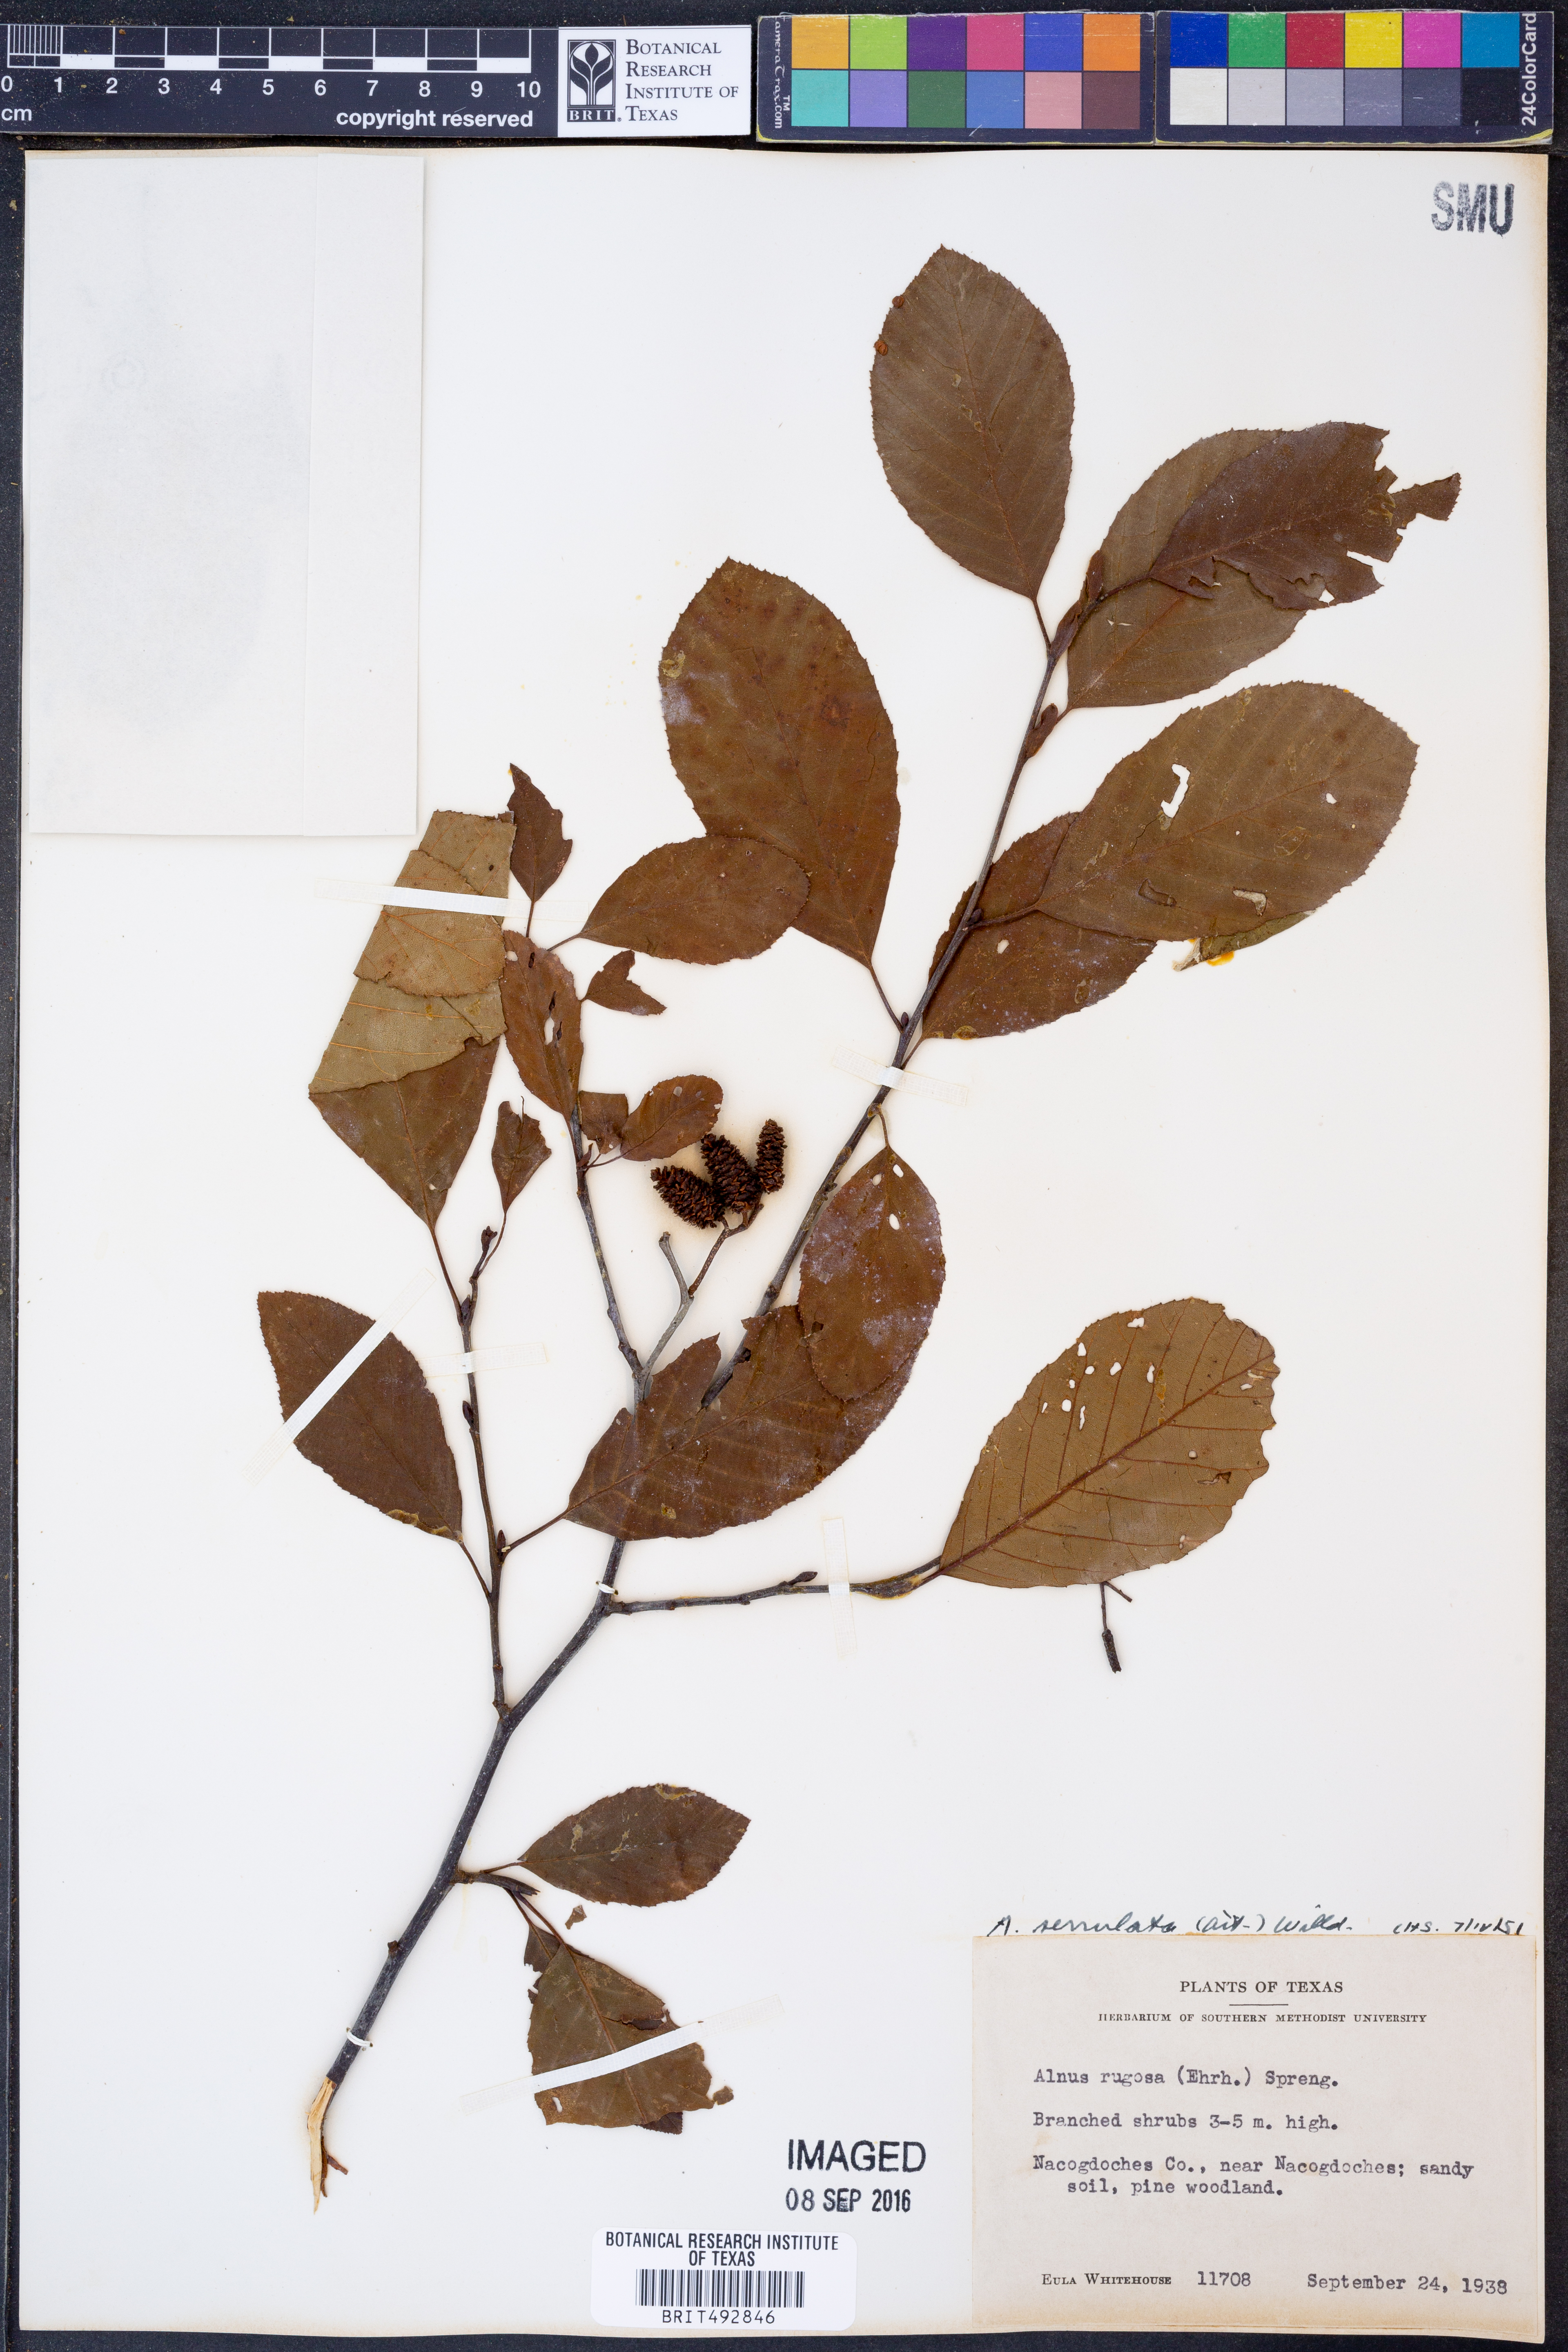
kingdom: Plantae
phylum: Tracheophyta
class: Magnoliopsida
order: Fagales
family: Betulaceae
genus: Alnus
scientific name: Alnus serrulata
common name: Hazel alder
